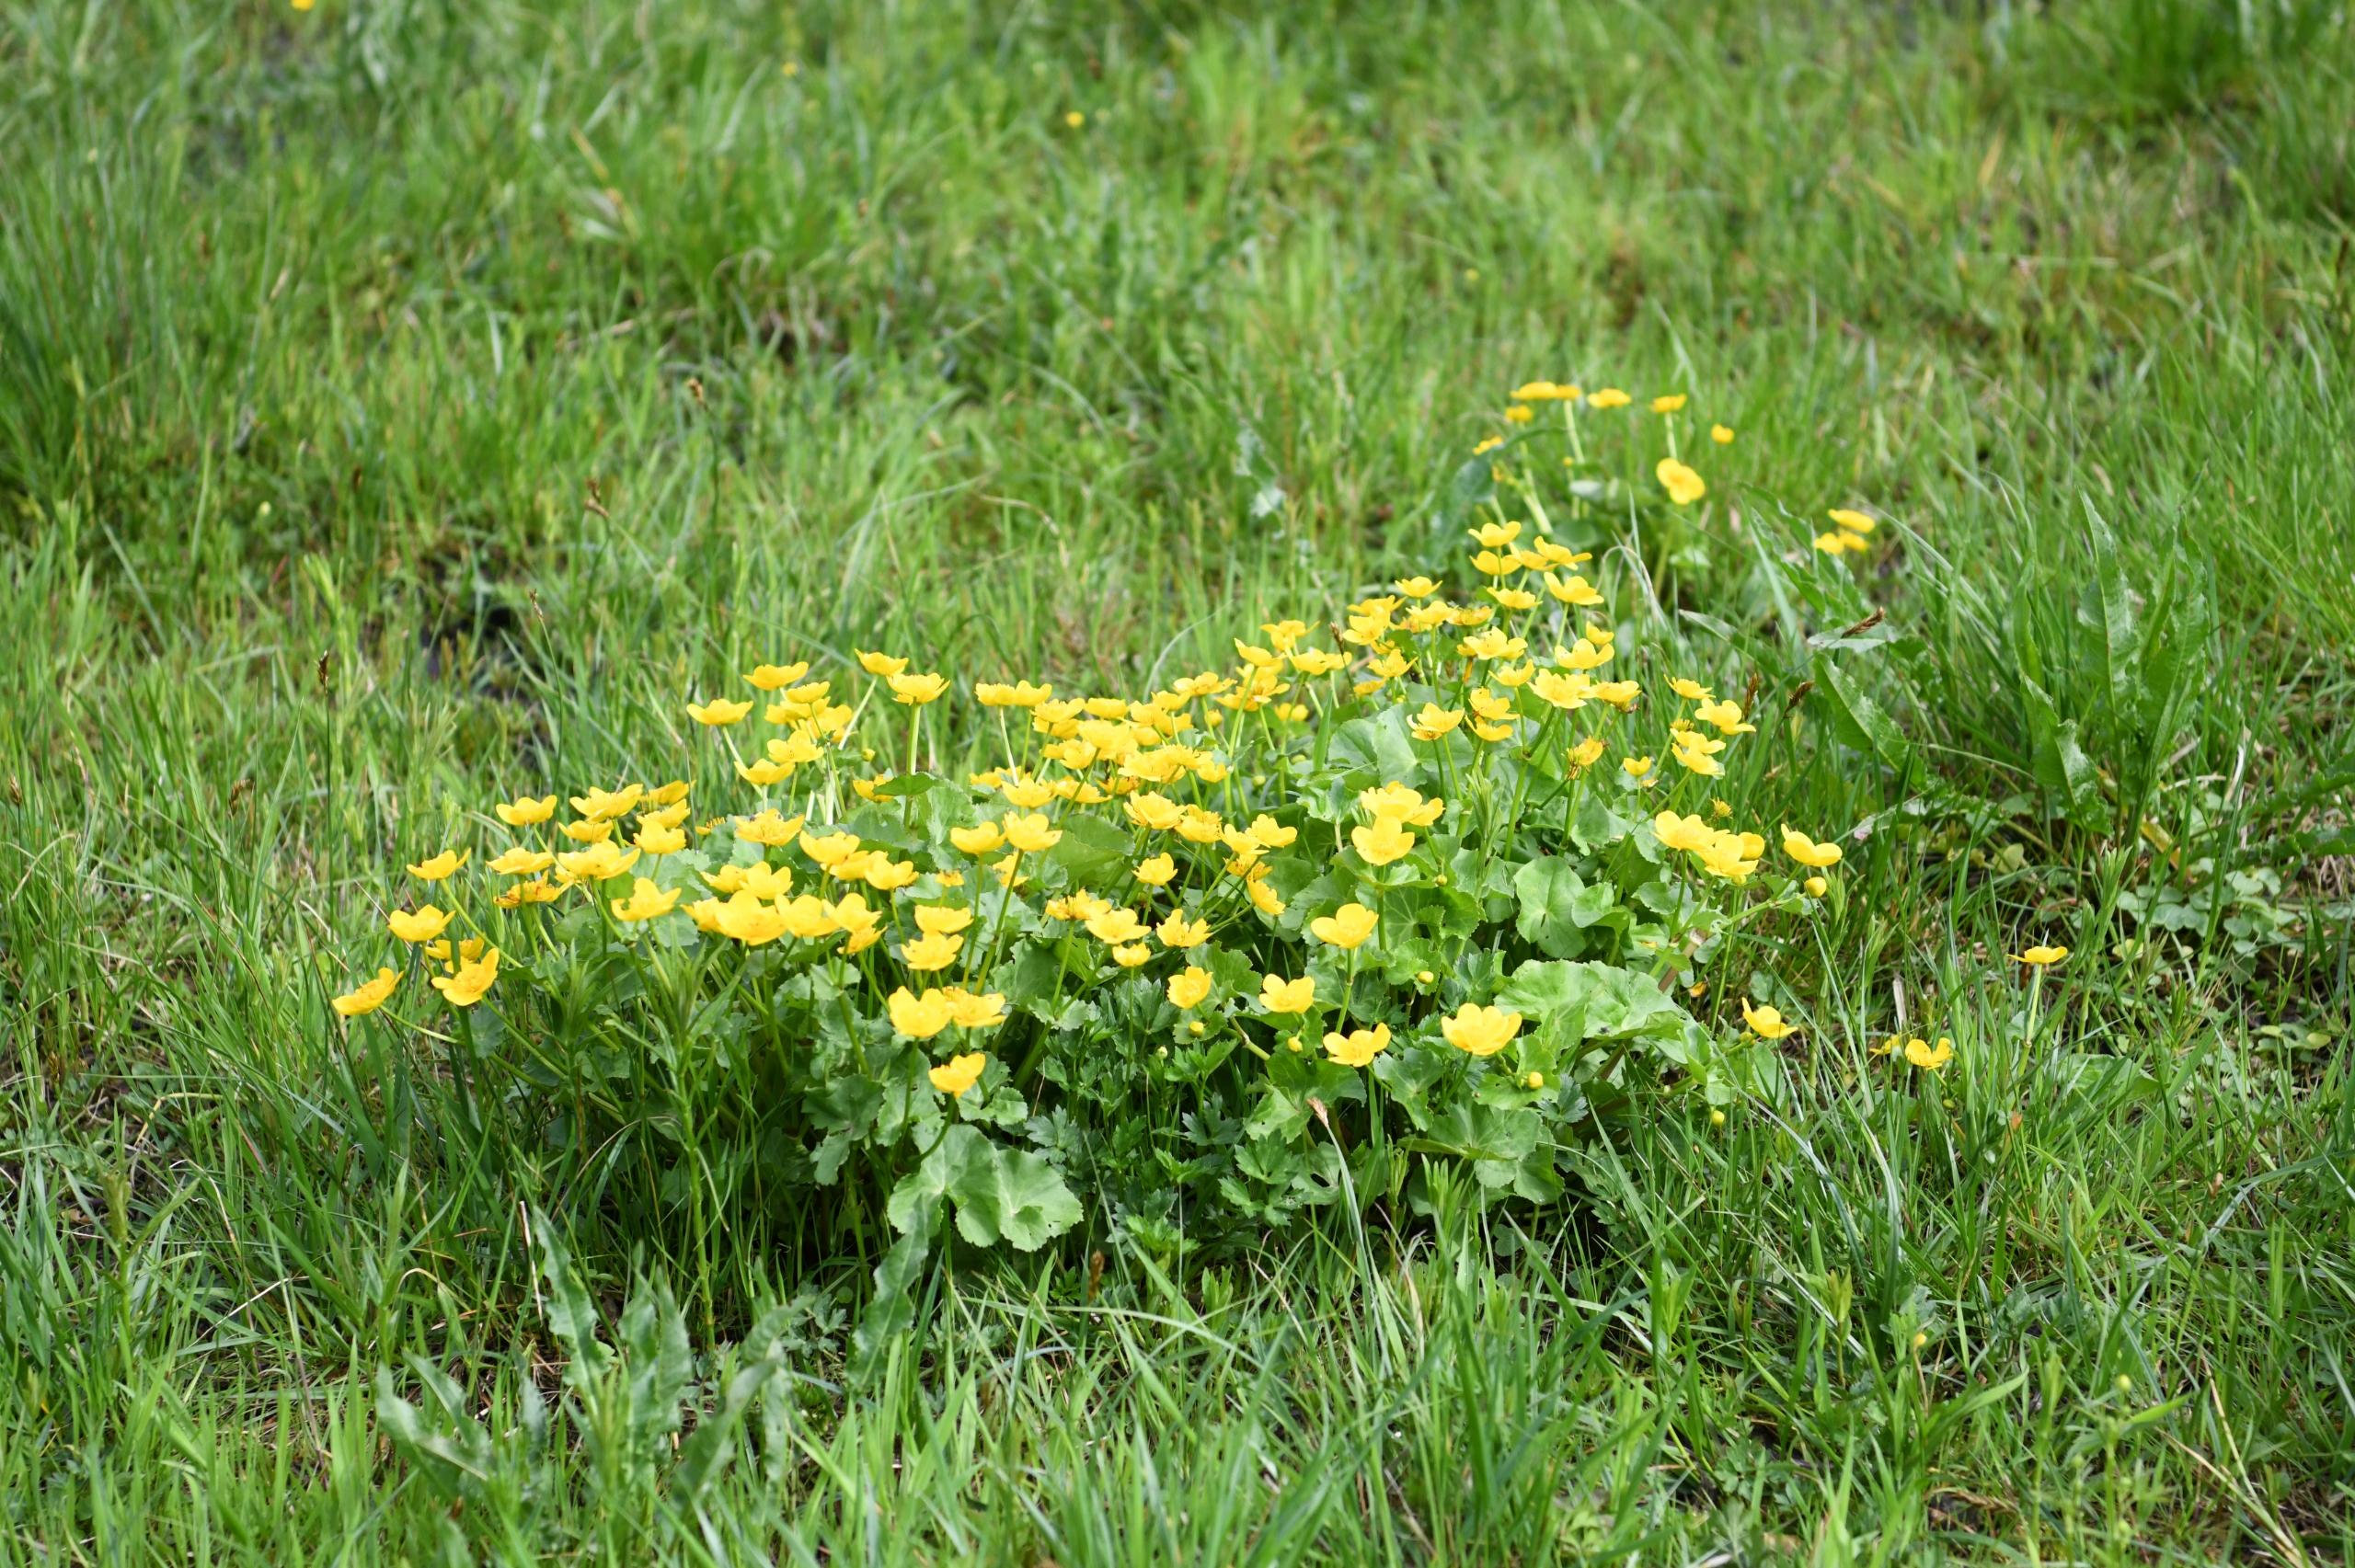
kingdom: Plantae
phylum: Tracheophyta
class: Magnoliopsida
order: Ranunculales
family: Ranunculaceae
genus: Caltha
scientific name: Caltha palustris
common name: Eng-kabbeleje
